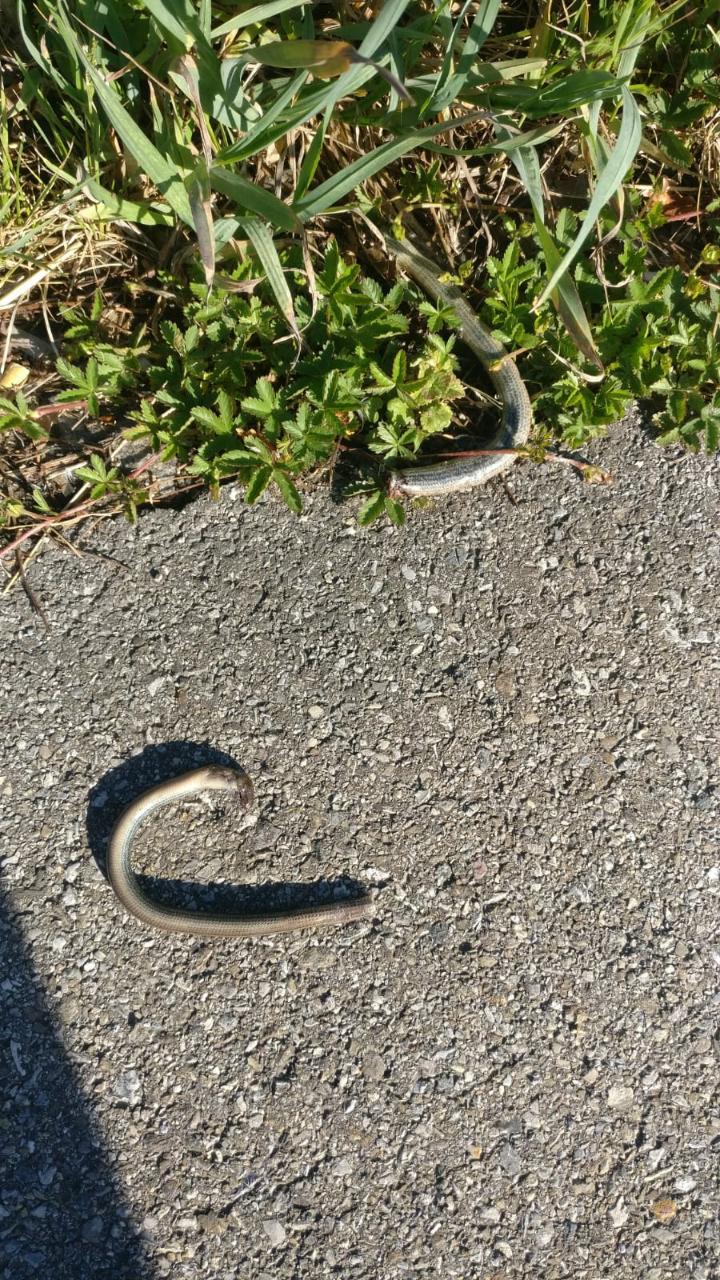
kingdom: Animalia
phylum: Chordata
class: Squamata
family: Anguidae
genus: Anguis
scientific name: Anguis fragilis
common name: Slow worm
